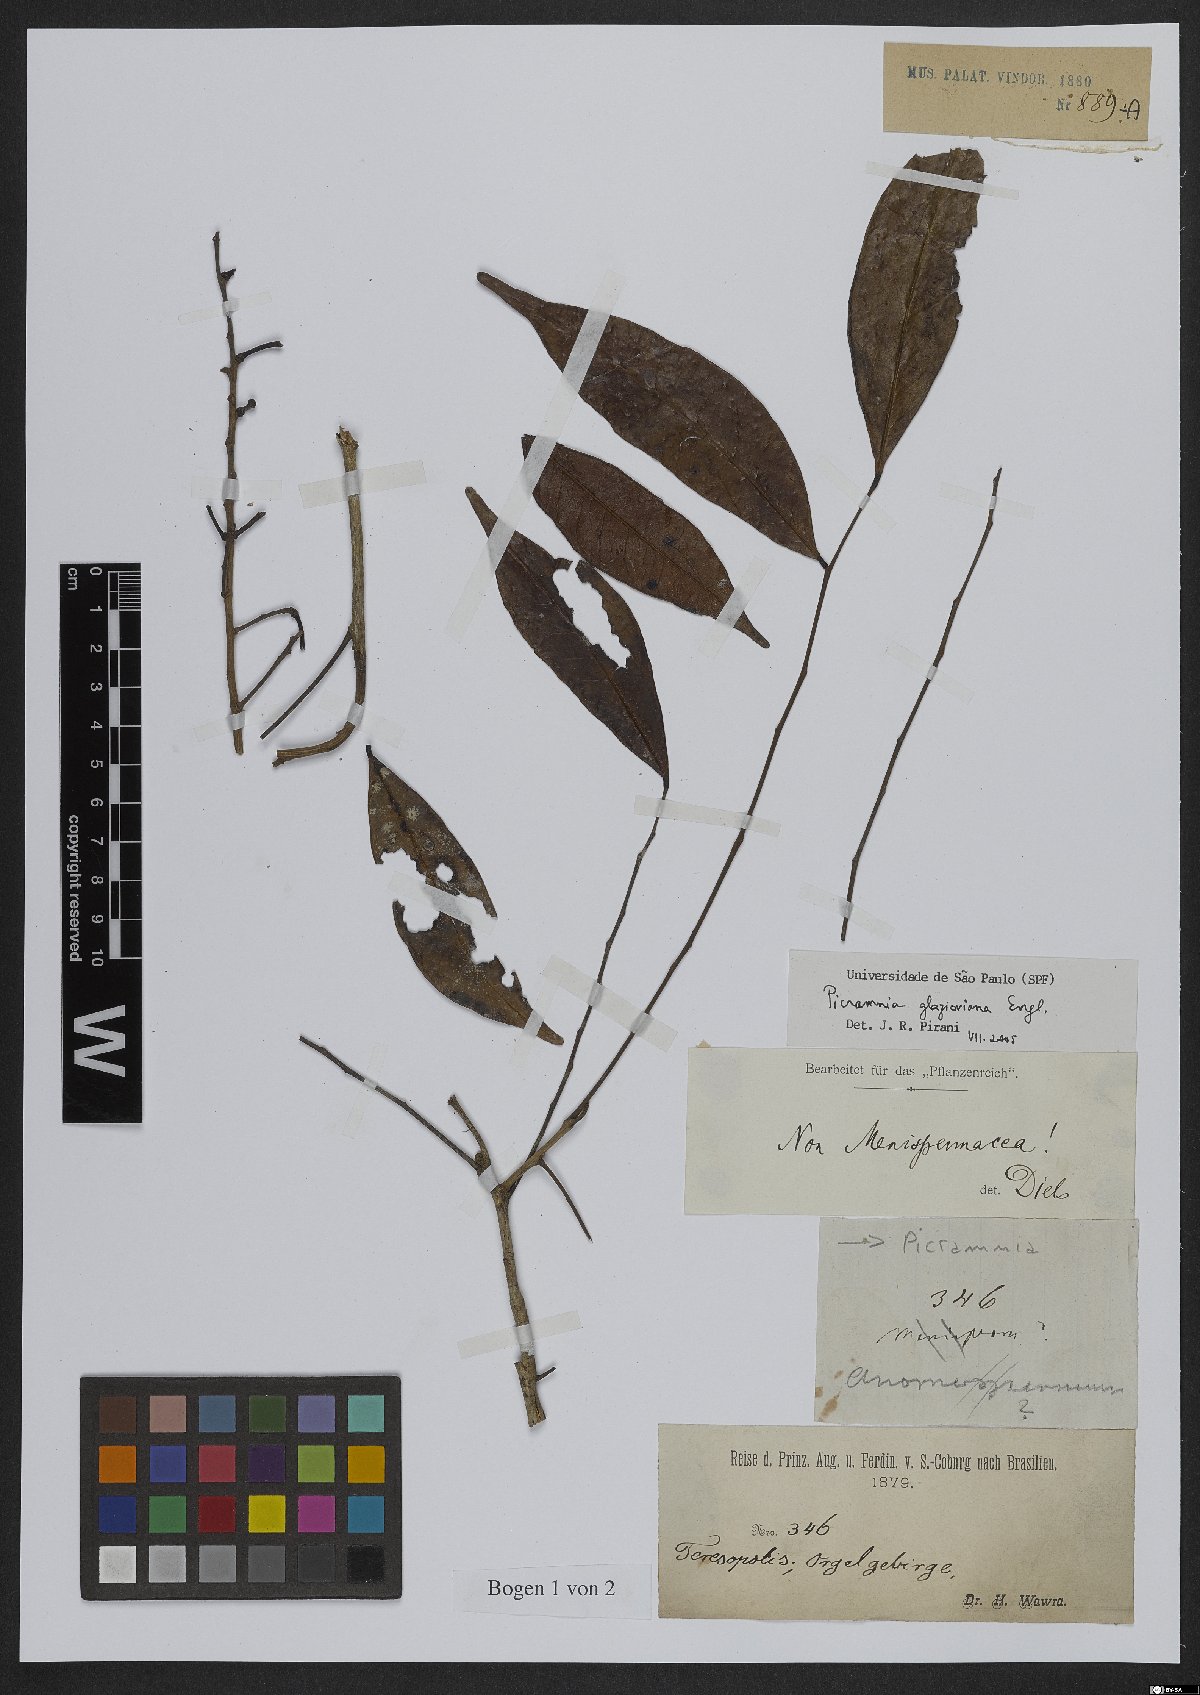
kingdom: Plantae
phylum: Tracheophyta
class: Magnoliopsida
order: Picramniales
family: Picramniaceae
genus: Picramnia
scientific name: Picramnia glazioviana
